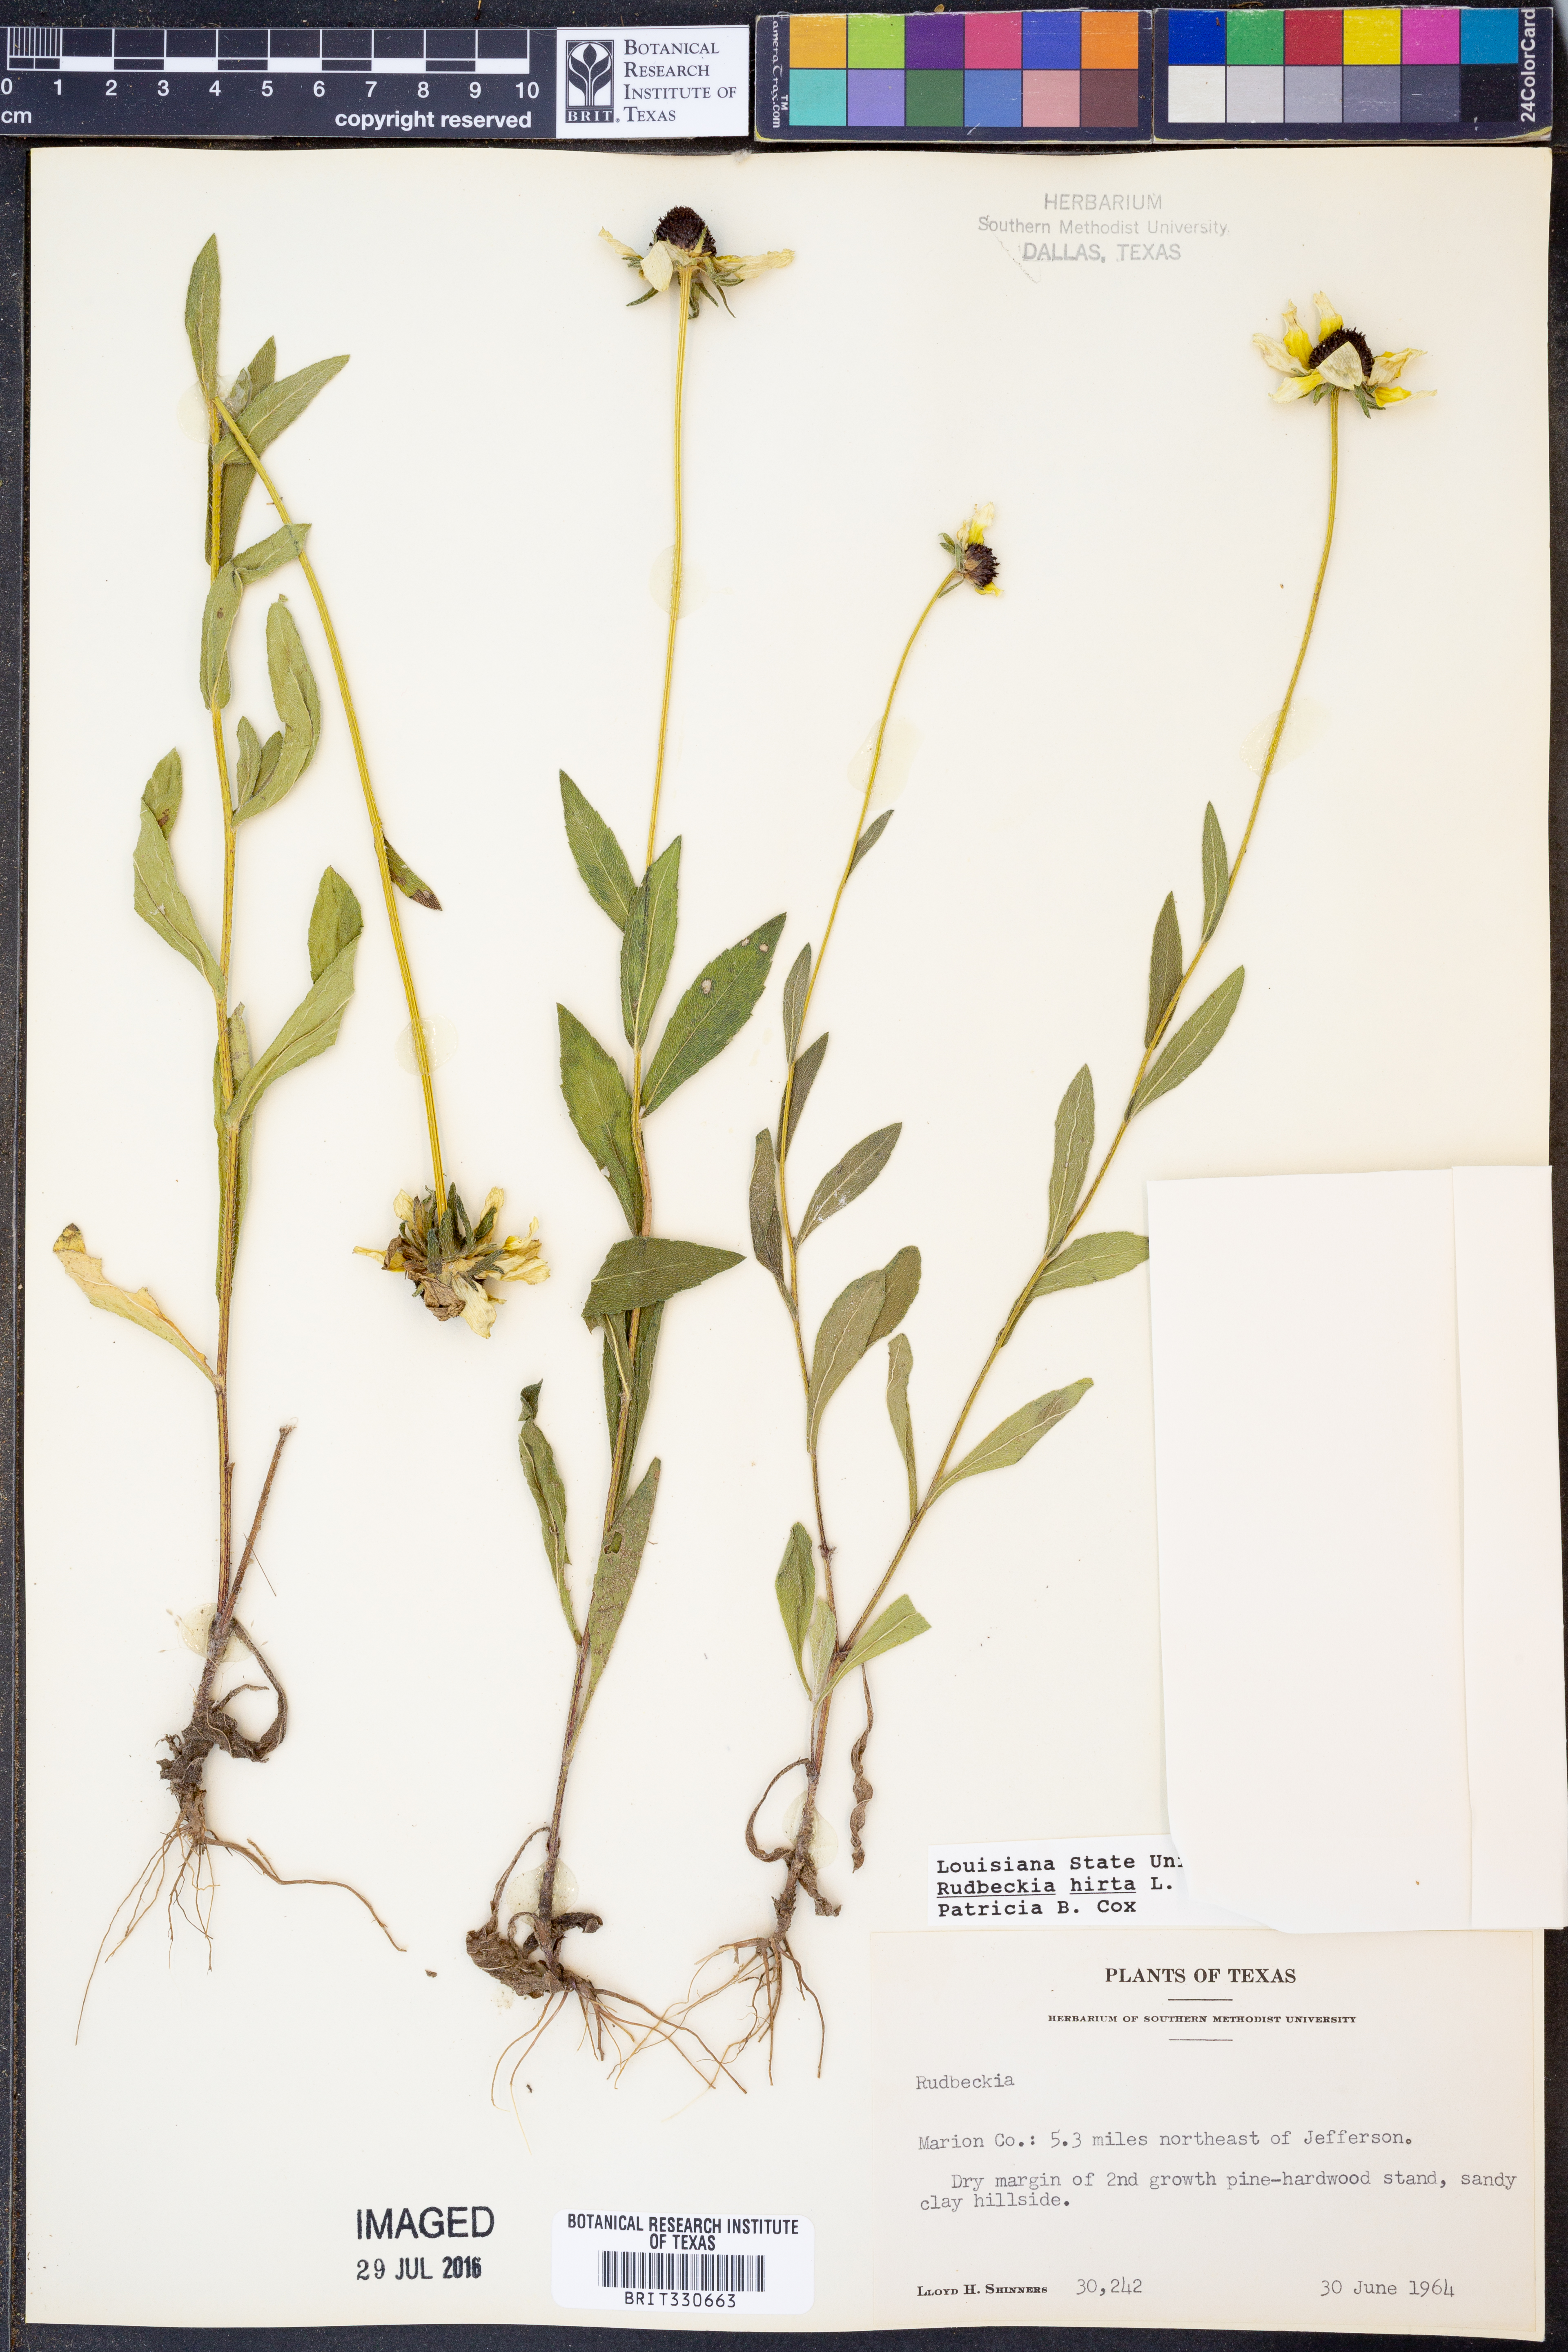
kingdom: Plantae
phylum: Tracheophyta
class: Magnoliopsida
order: Asterales
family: Asteraceae
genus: Rudbeckia
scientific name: Rudbeckia hirta
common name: Black-eyed-susan
